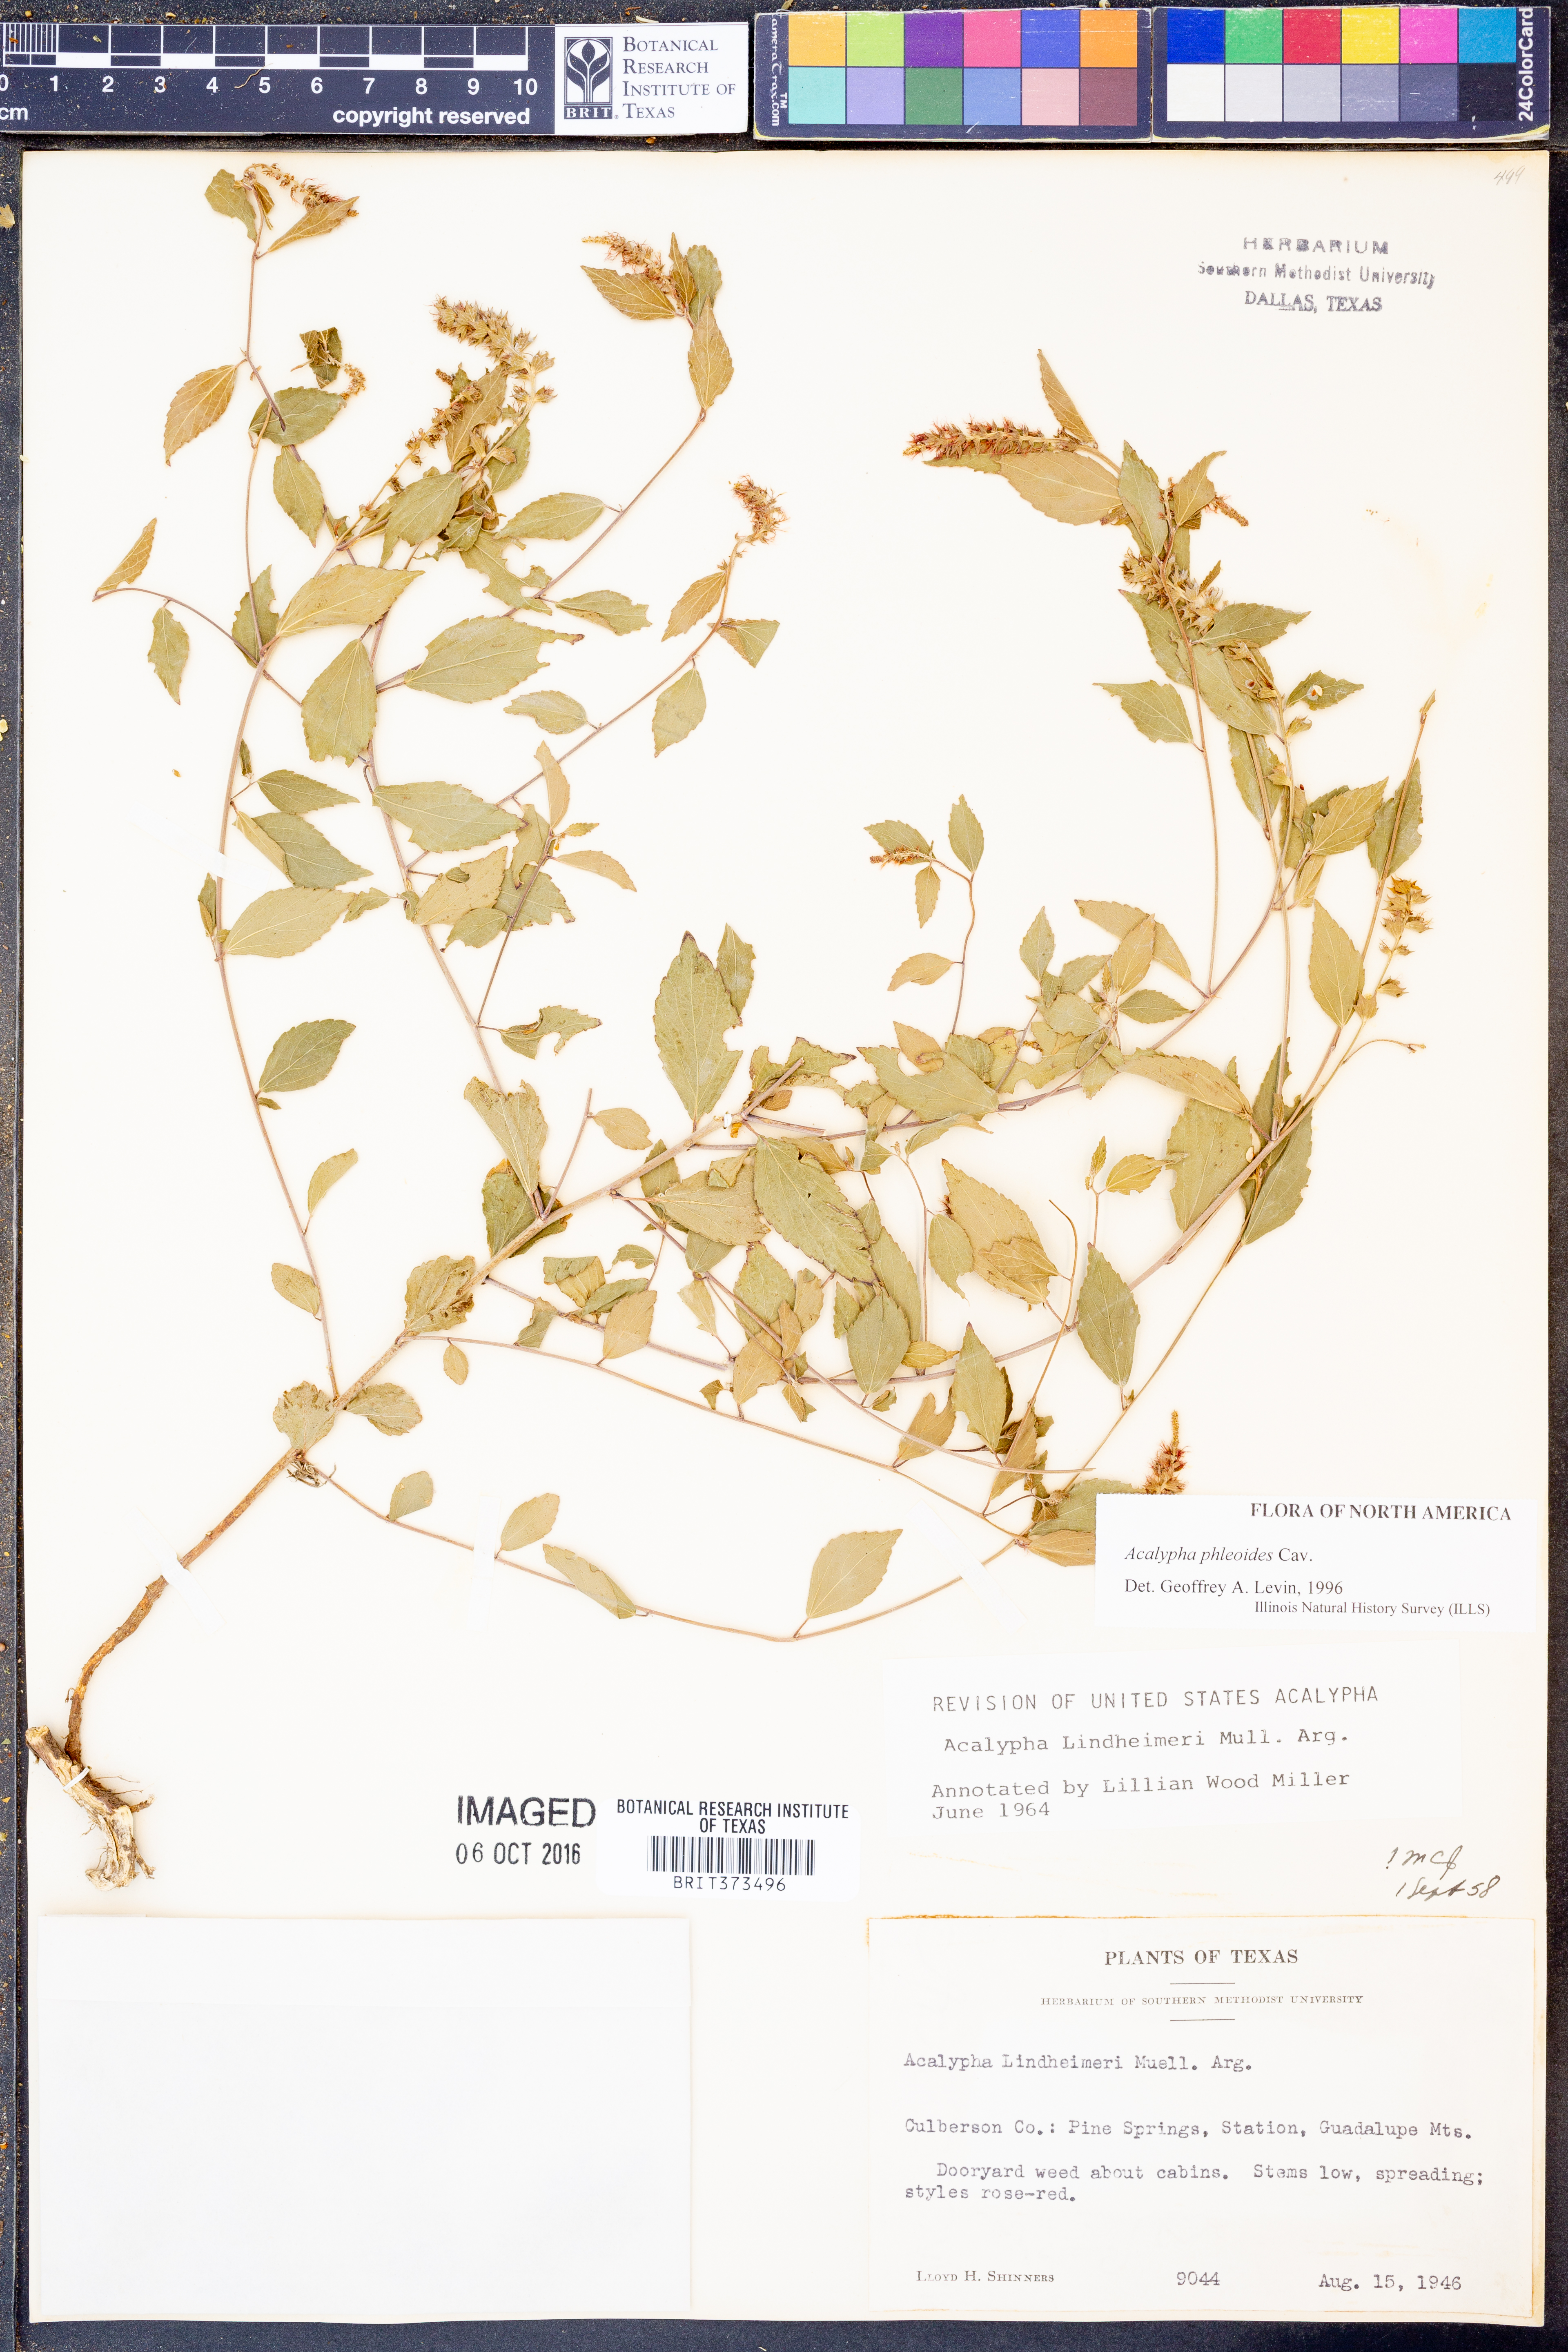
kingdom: Plantae
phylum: Tracheophyta
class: Magnoliopsida
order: Malpighiales
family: Euphorbiaceae
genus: Acalypha
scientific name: Acalypha phleoides
